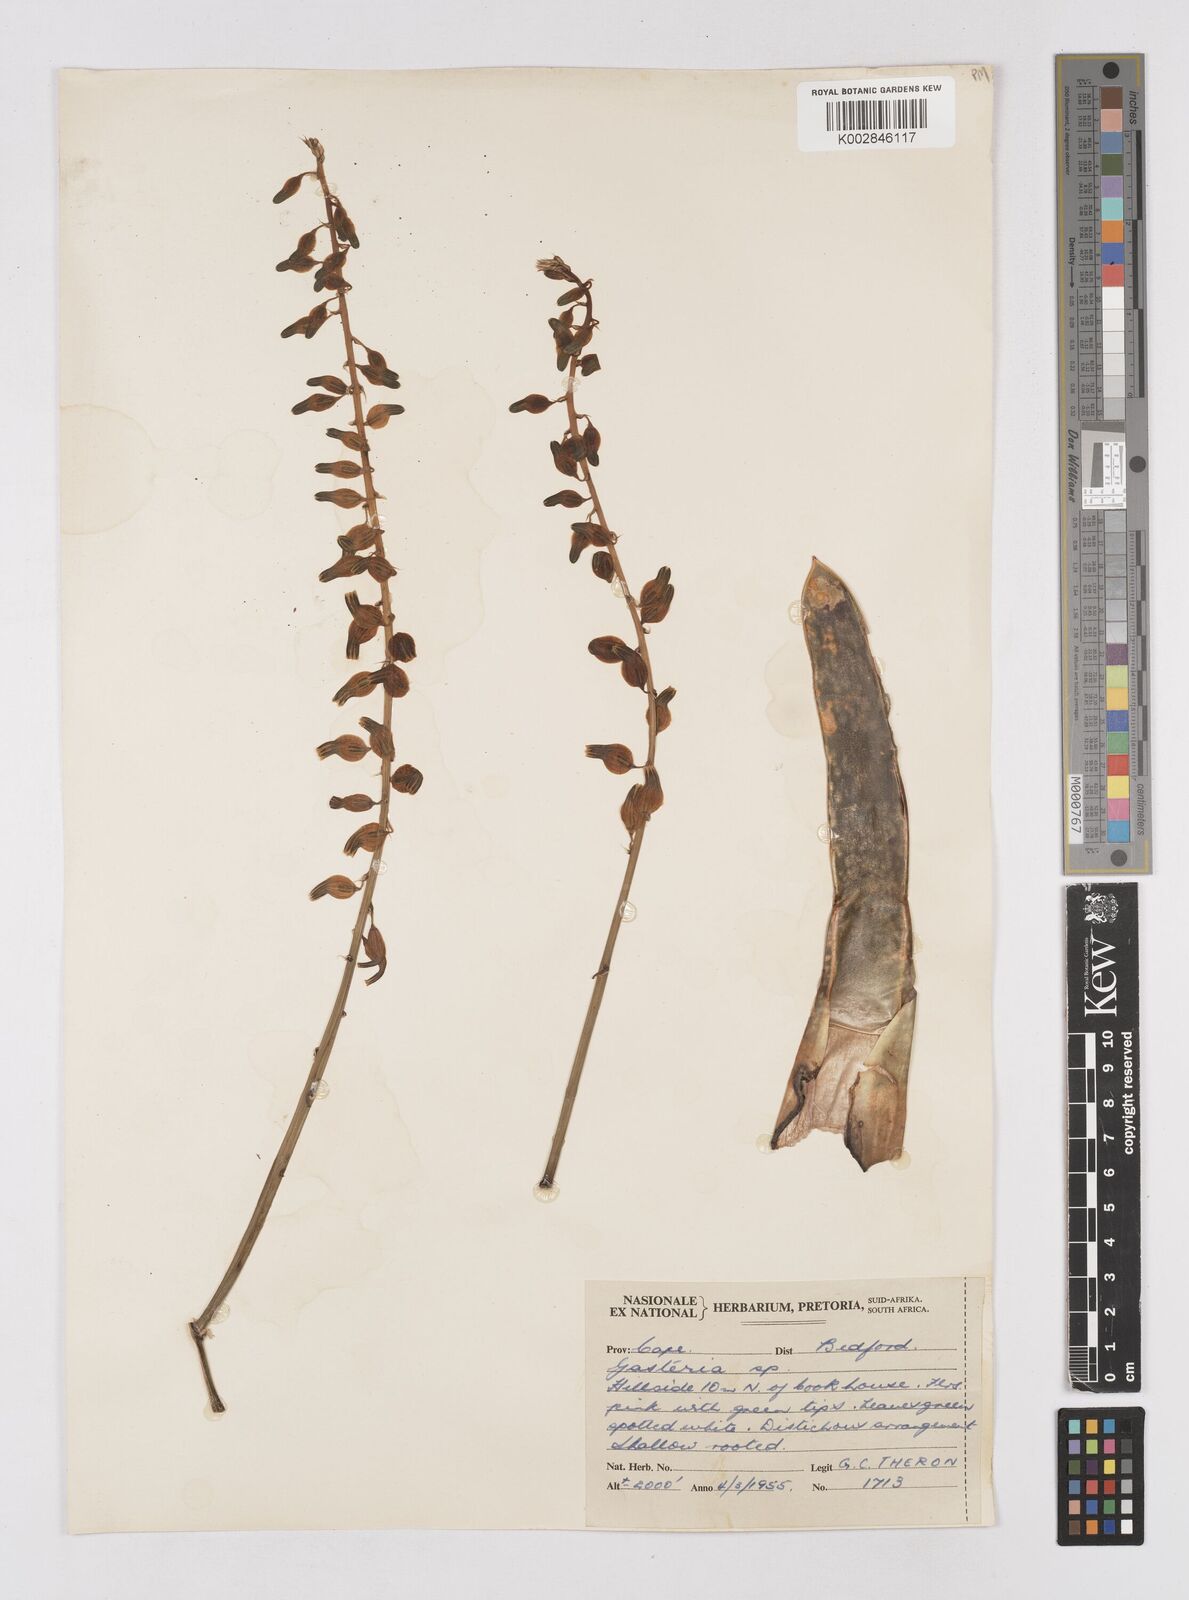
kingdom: Plantae
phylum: Tracheophyta
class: Liliopsida
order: Asparagales
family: Asphodelaceae
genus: Gasteria
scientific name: Gasteria
